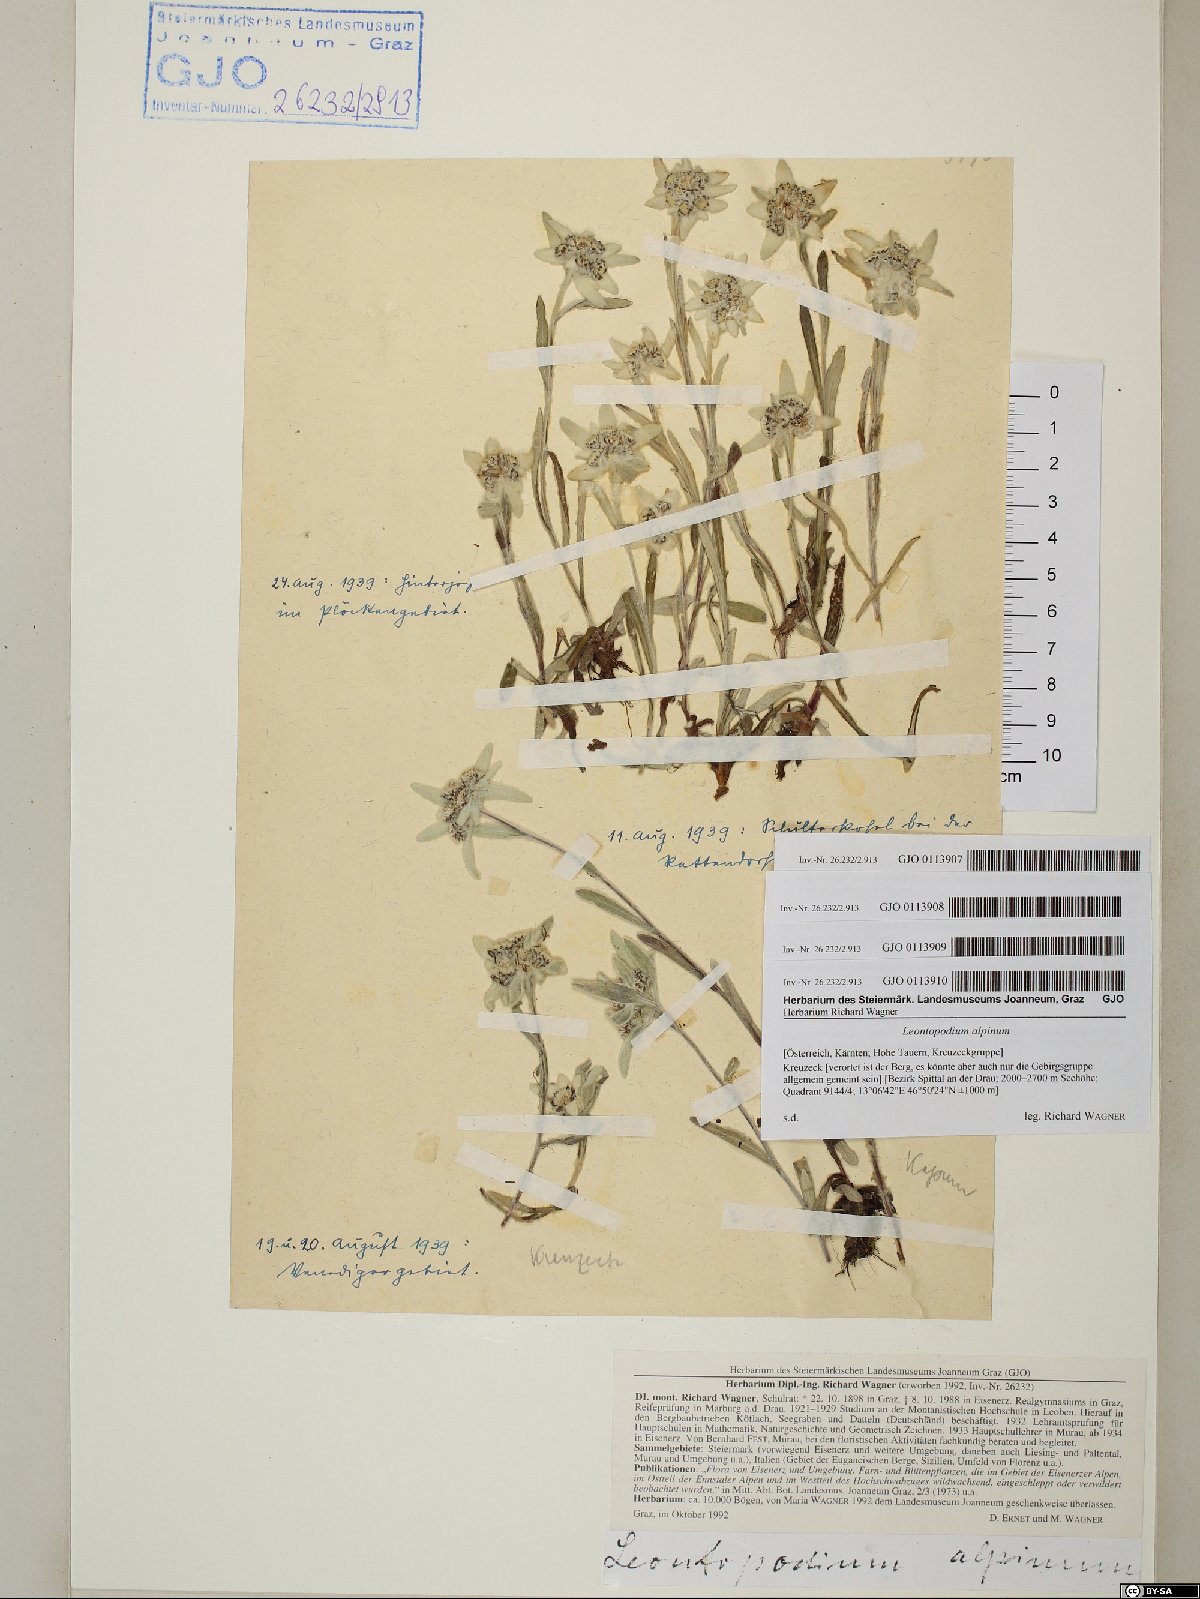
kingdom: Plantae
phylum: Tracheophyta
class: Magnoliopsida
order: Asterales
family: Asteraceae
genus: Leontopodium
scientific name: Leontopodium nivale
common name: Edelweiss
